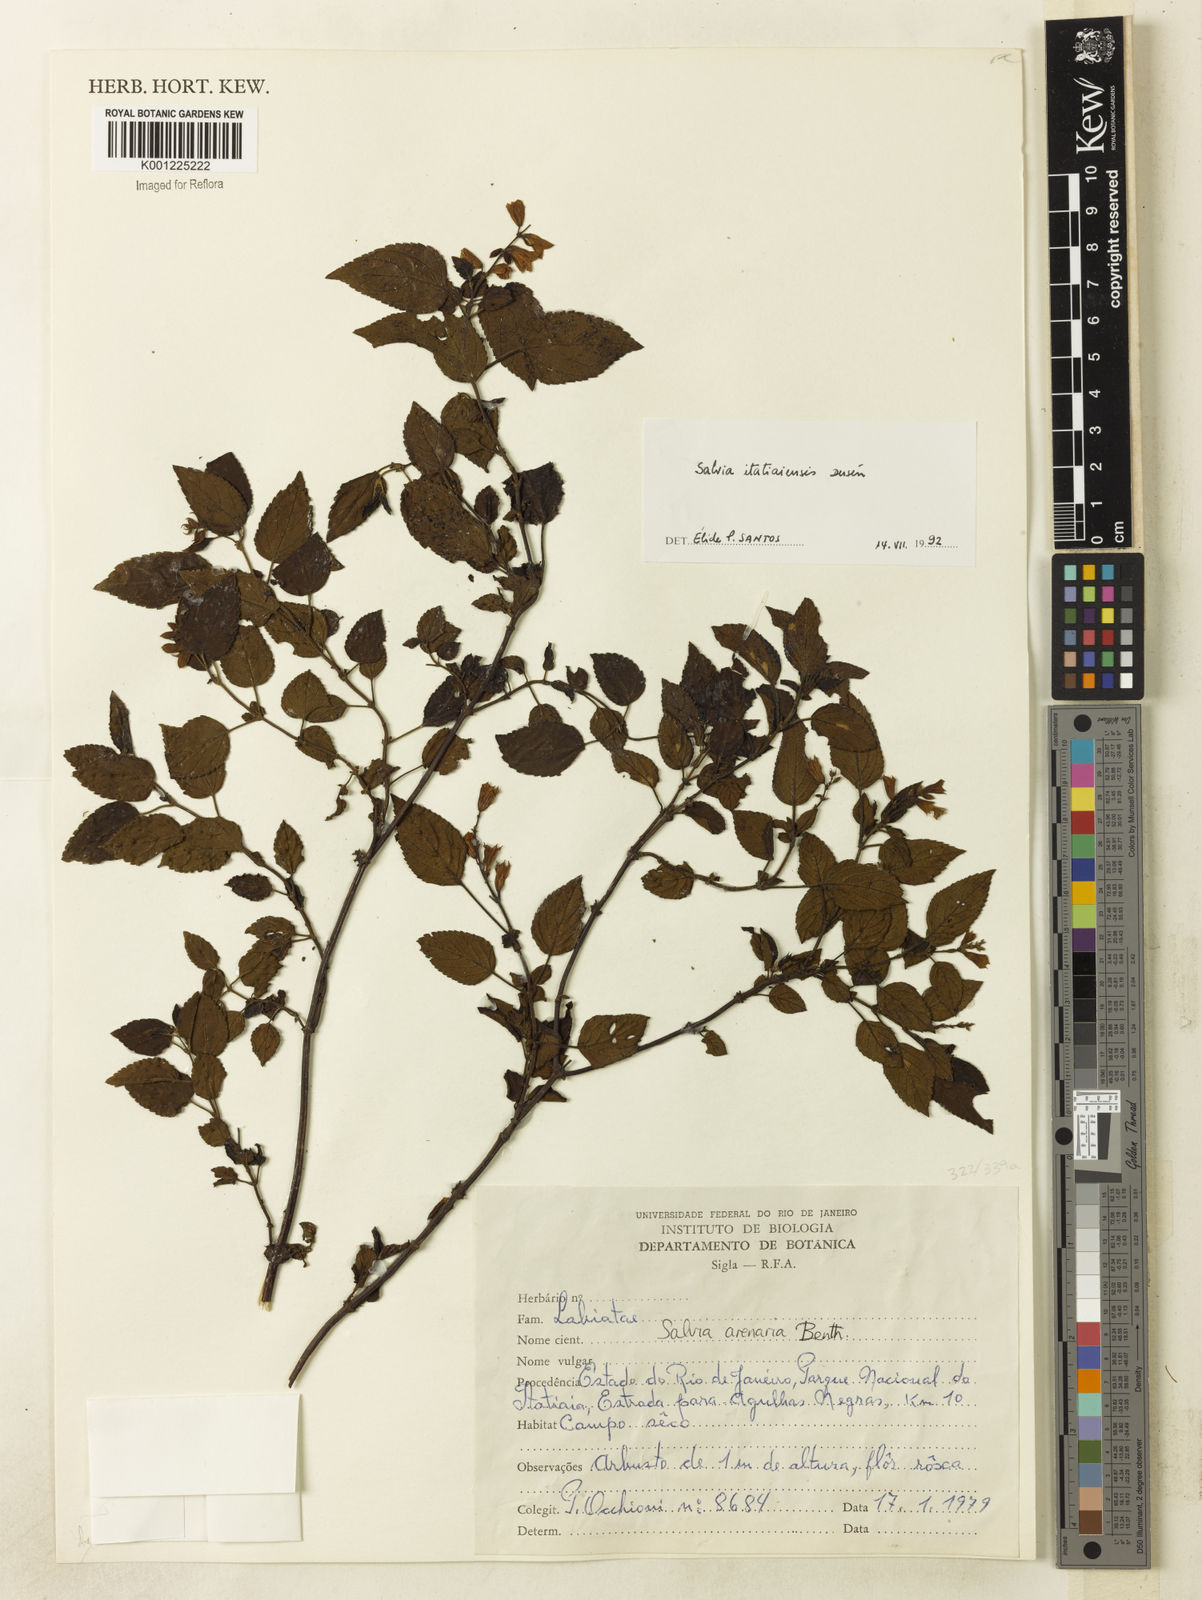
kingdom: Plantae
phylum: Tracheophyta
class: Magnoliopsida
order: Lamiales
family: Lamiaceae
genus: Salvia
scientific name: Salvia
